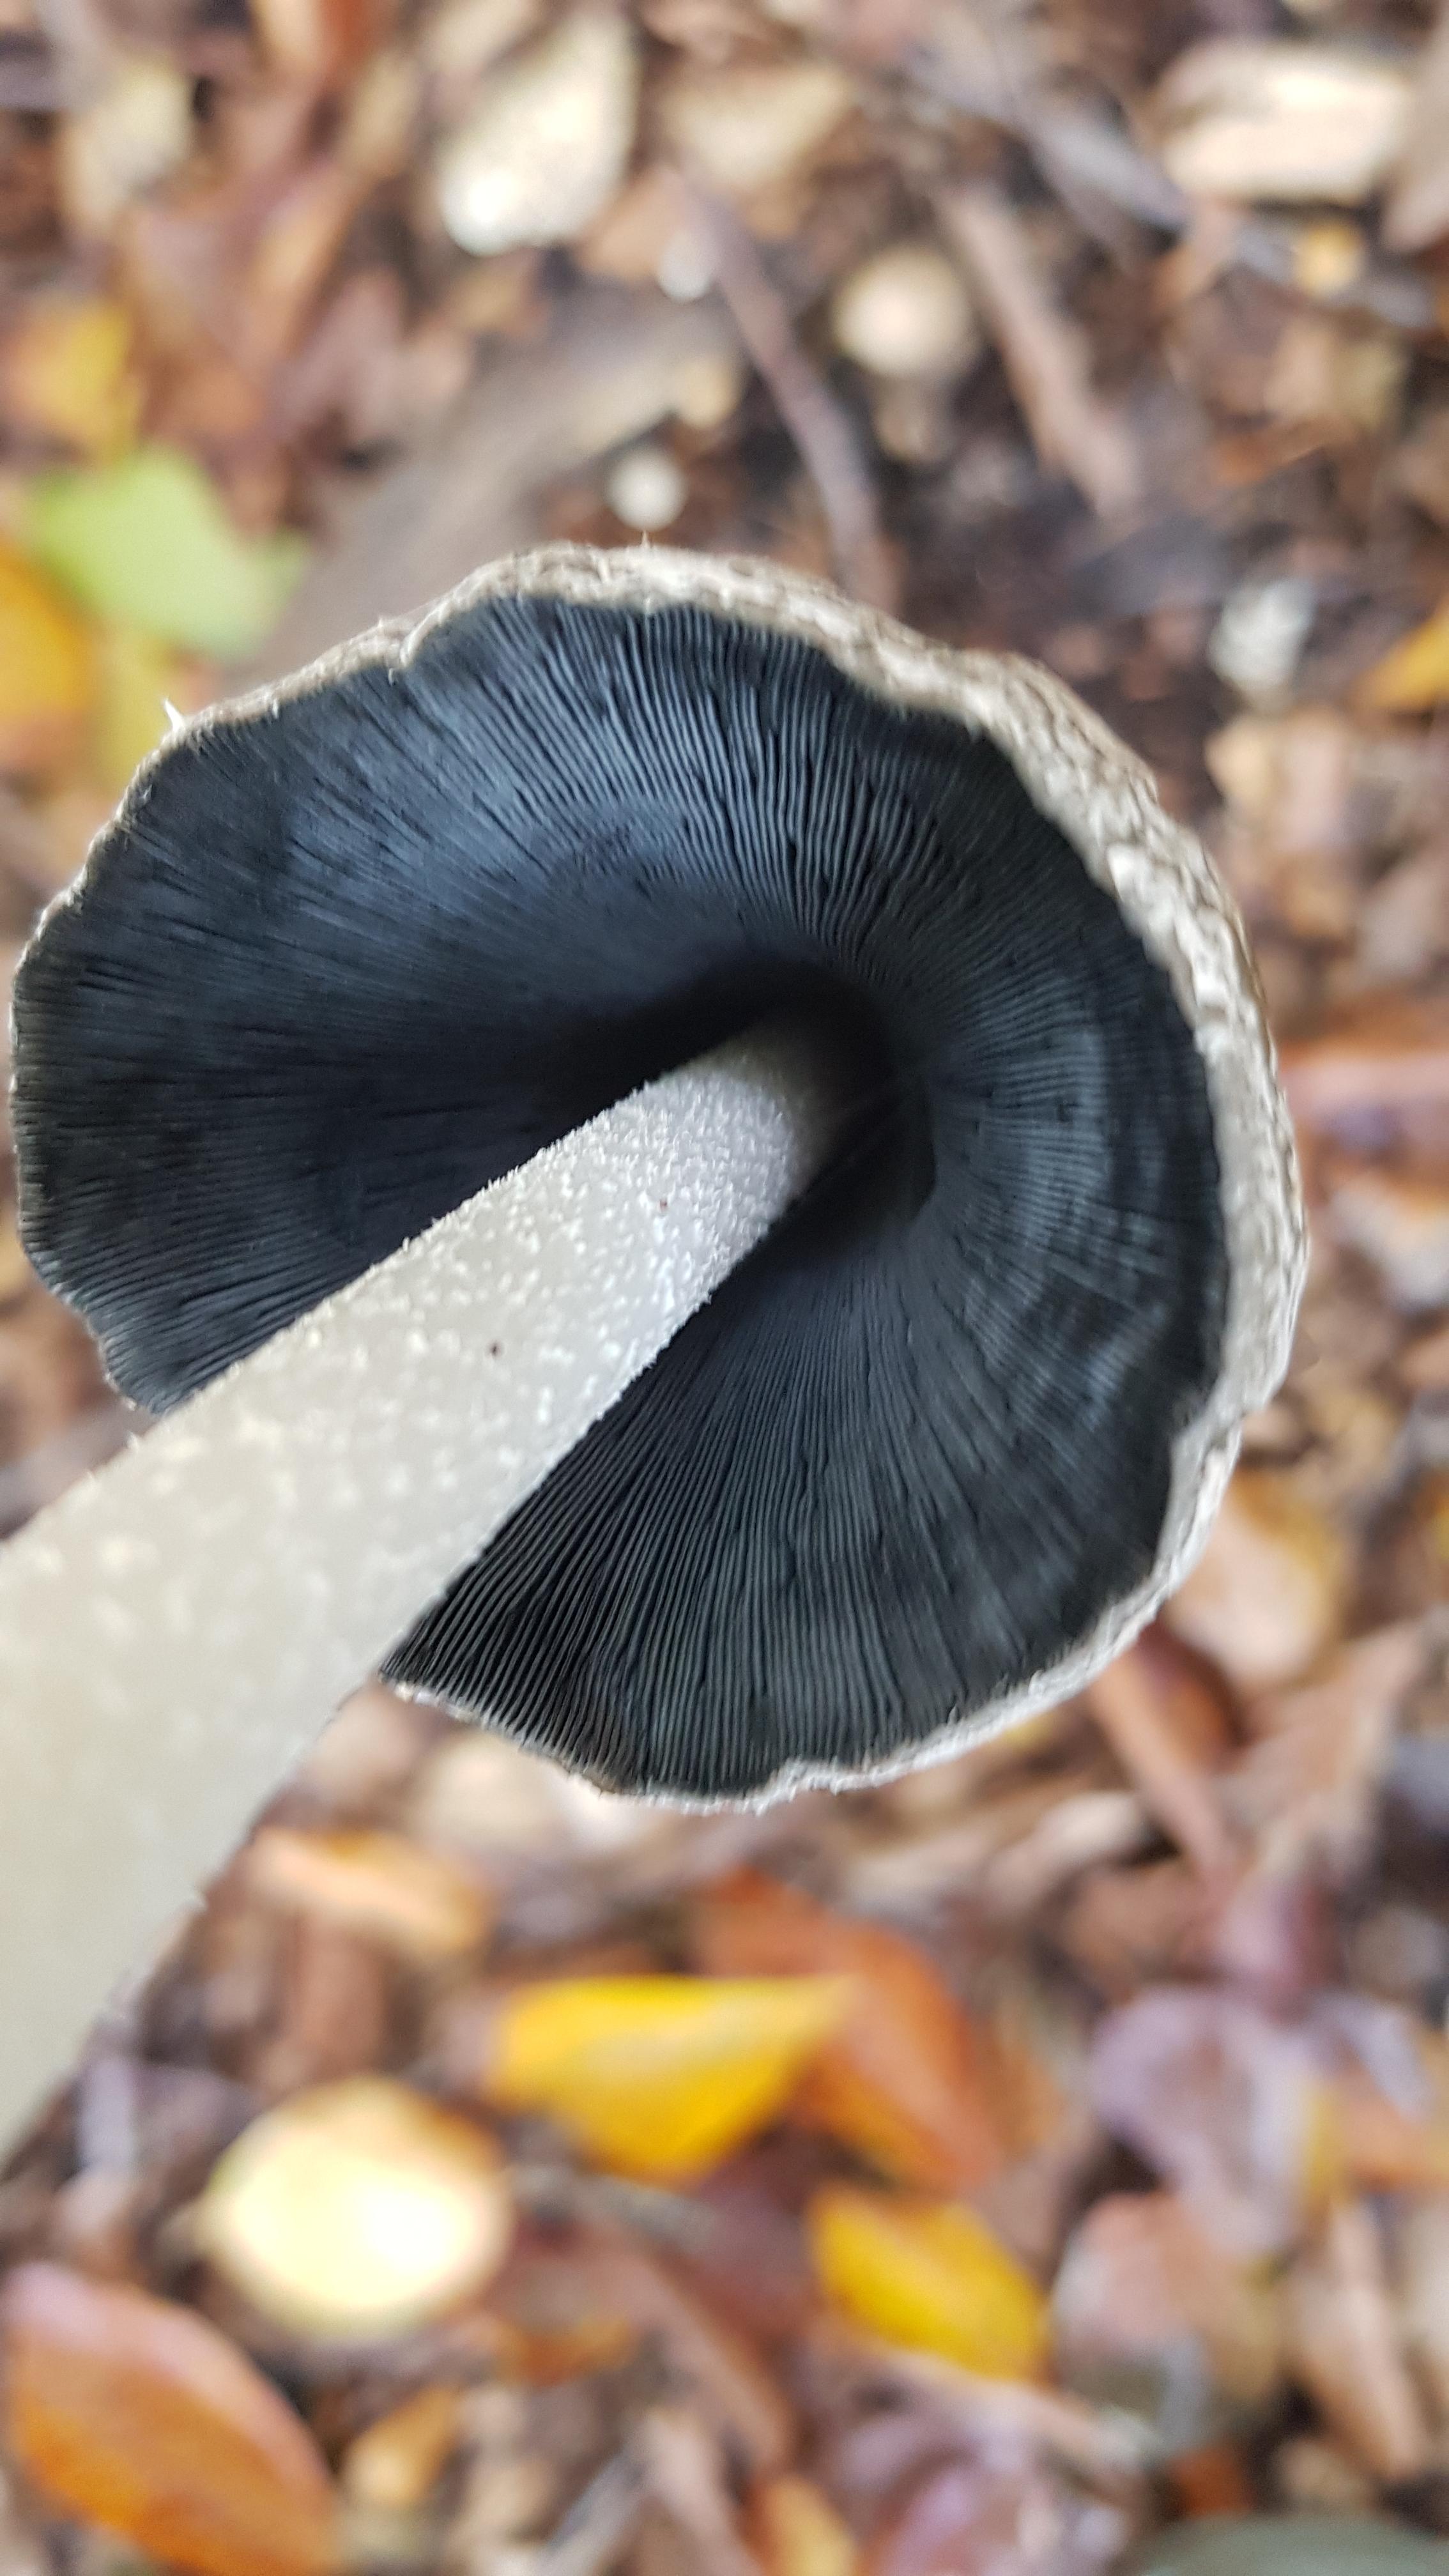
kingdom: Fungi
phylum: Basidiomycota
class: Agaricomycetes
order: Agaricales
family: Psathyrellaceae
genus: Coprinopsis
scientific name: Coprinopsis picacea
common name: skade-blækhat
